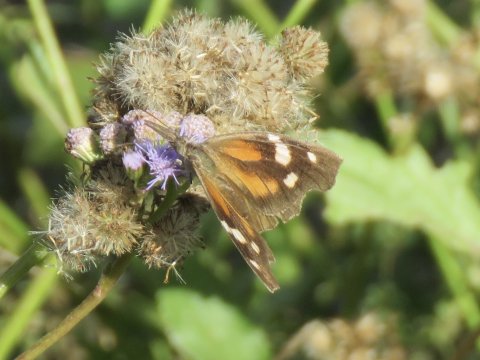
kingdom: Animalia
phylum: Arthropoda
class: Insecta
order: Lepidoptera
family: Nymphalidae
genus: Libytheana
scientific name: Libytheana carinenta
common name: American Snout
